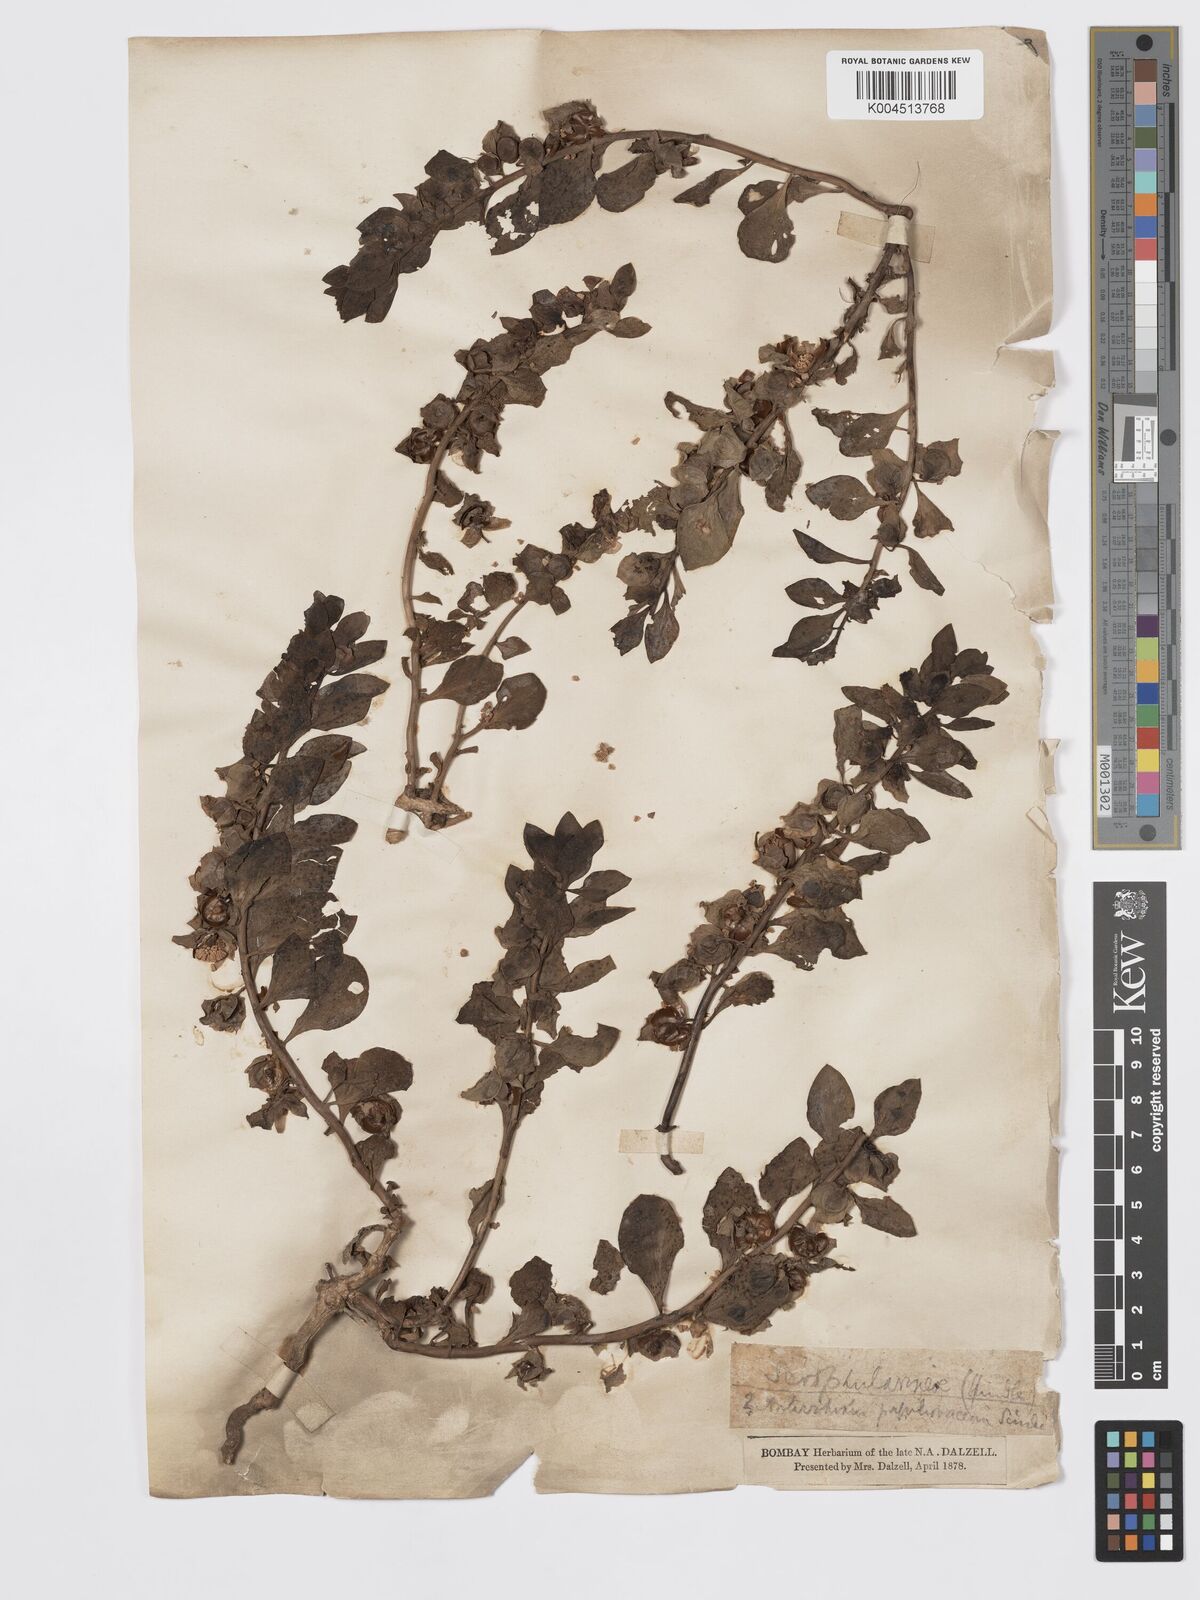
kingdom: Plantae
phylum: Tracheophyta
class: Magnoliopsida
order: Lamiales
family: Plantaginaceae
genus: Schweinfurthia
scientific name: Schweinfurthia papilionacea
